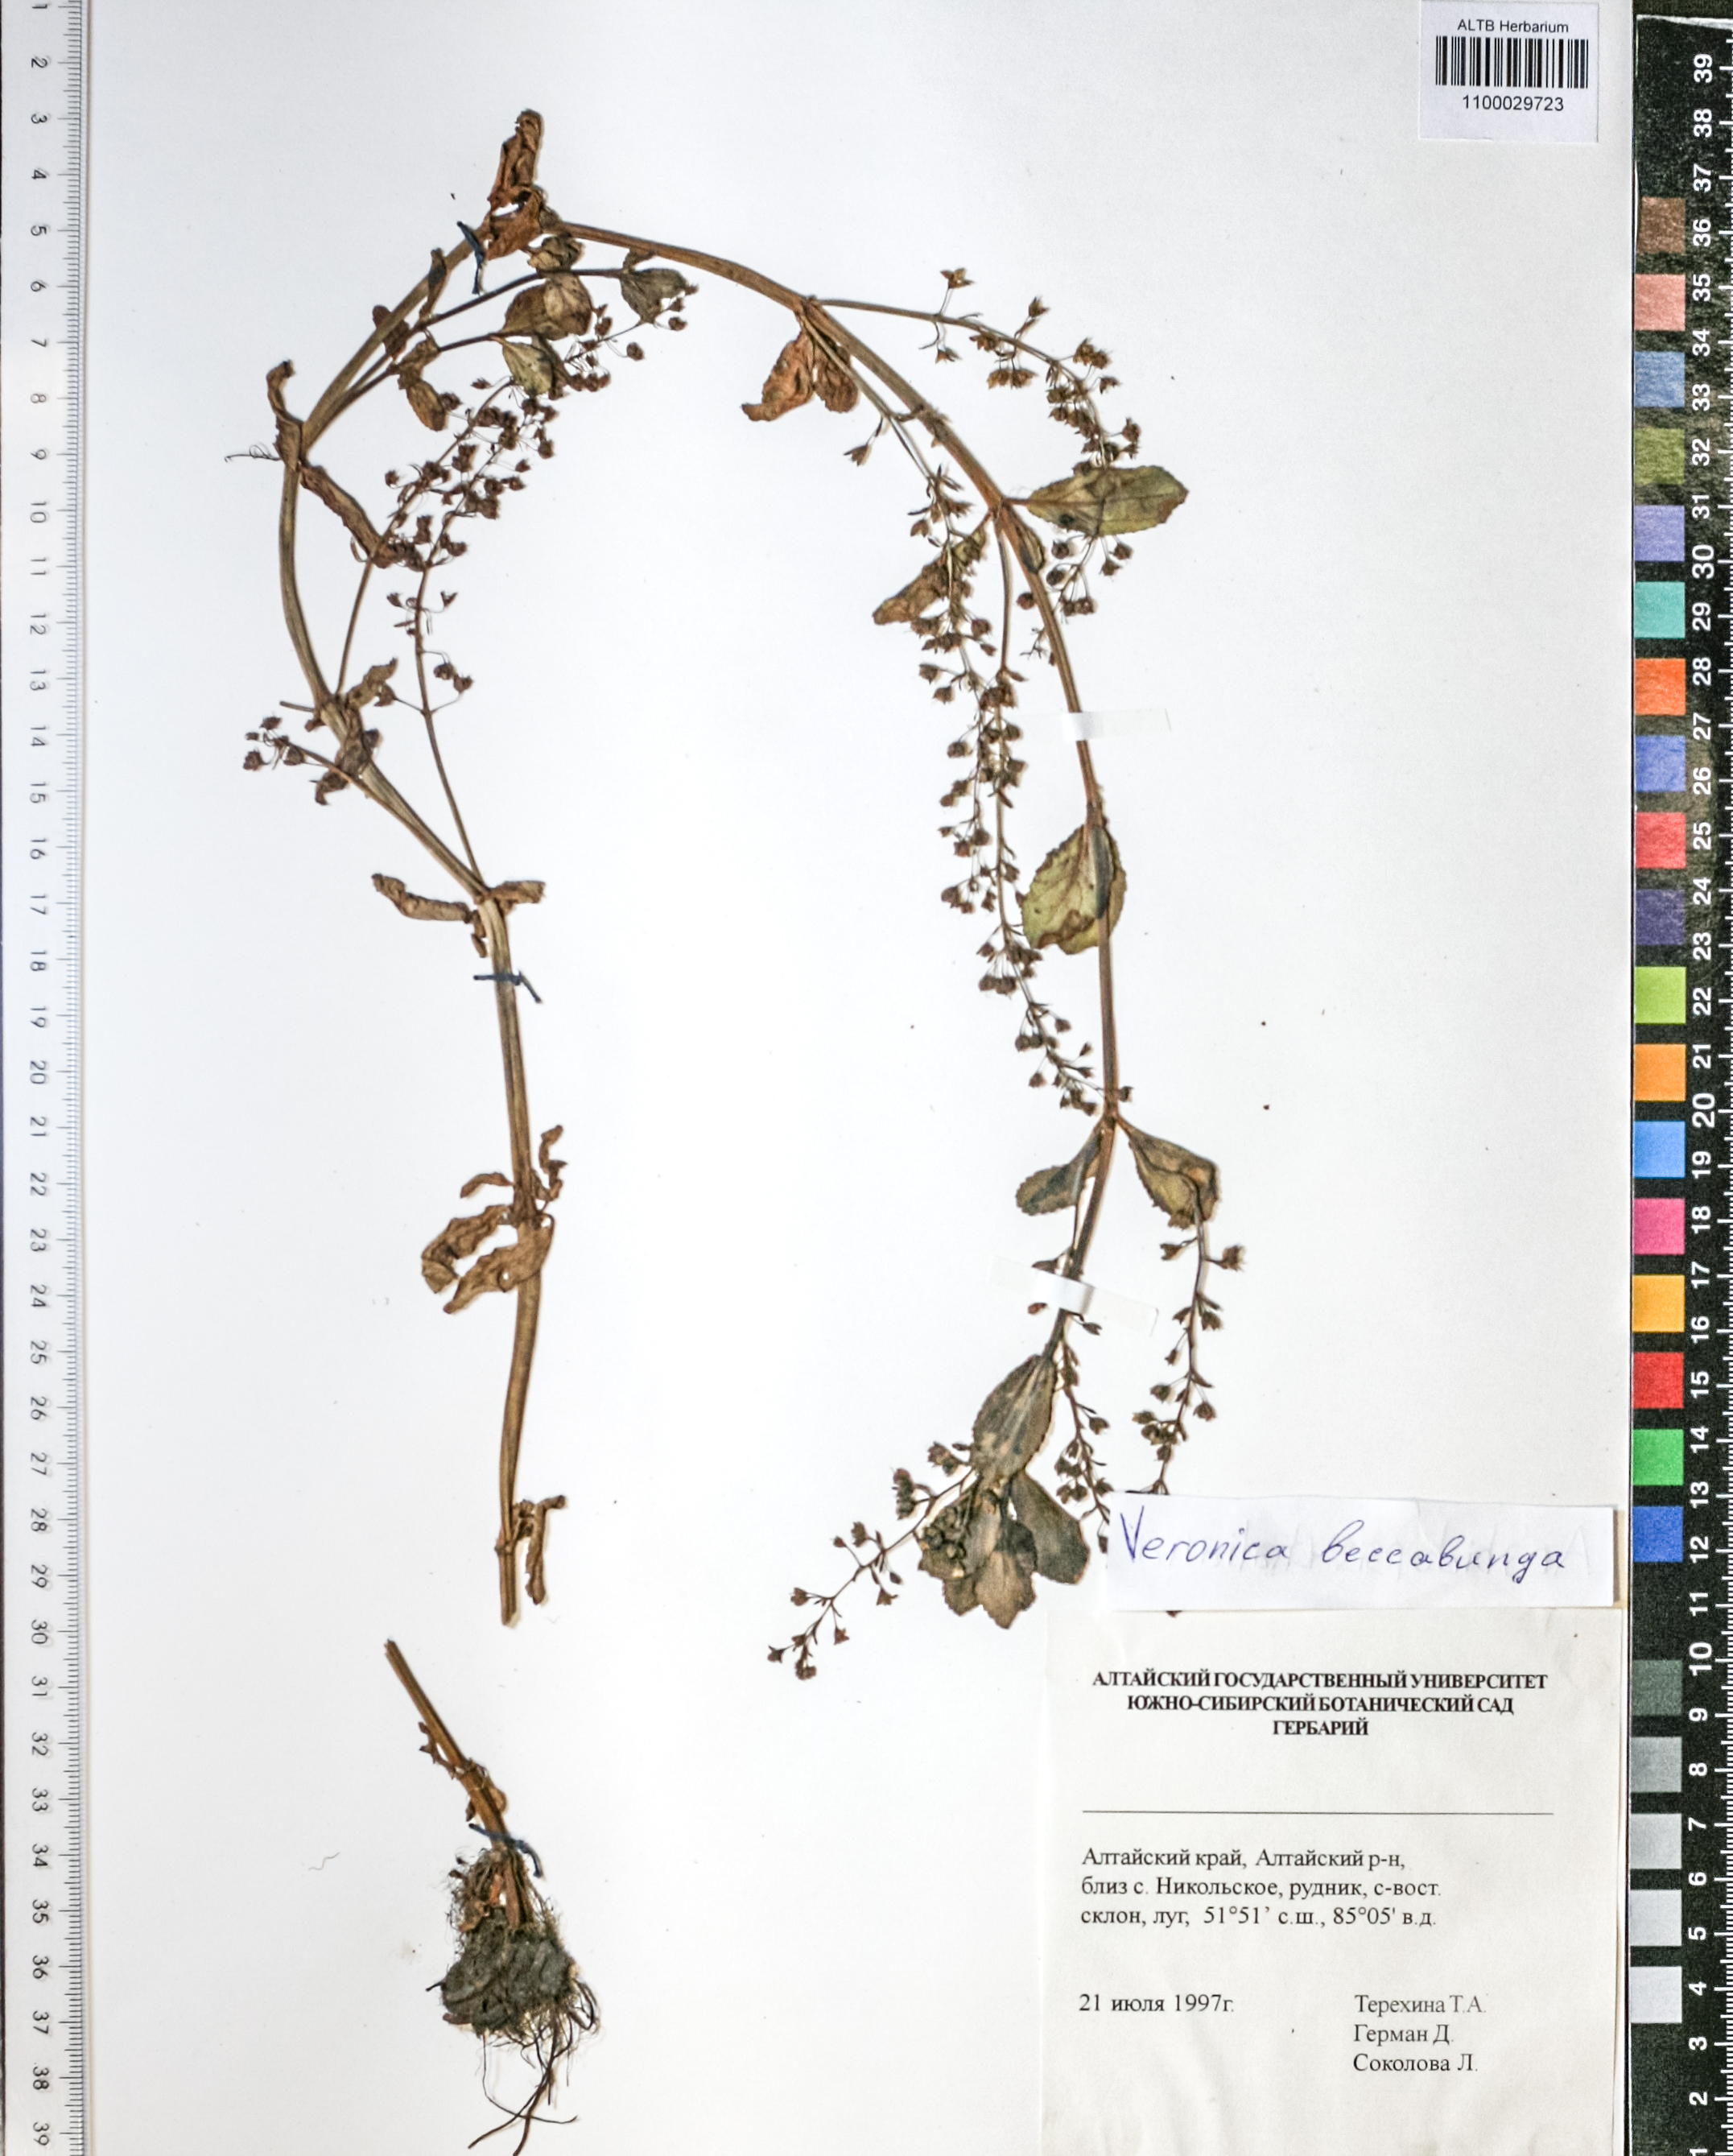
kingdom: Plantae
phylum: Tracheophyta
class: Magnoliopsida
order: Lamiales
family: Plantaginaceae
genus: Veronica
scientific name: Veronica beccabunga
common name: Brooklime
